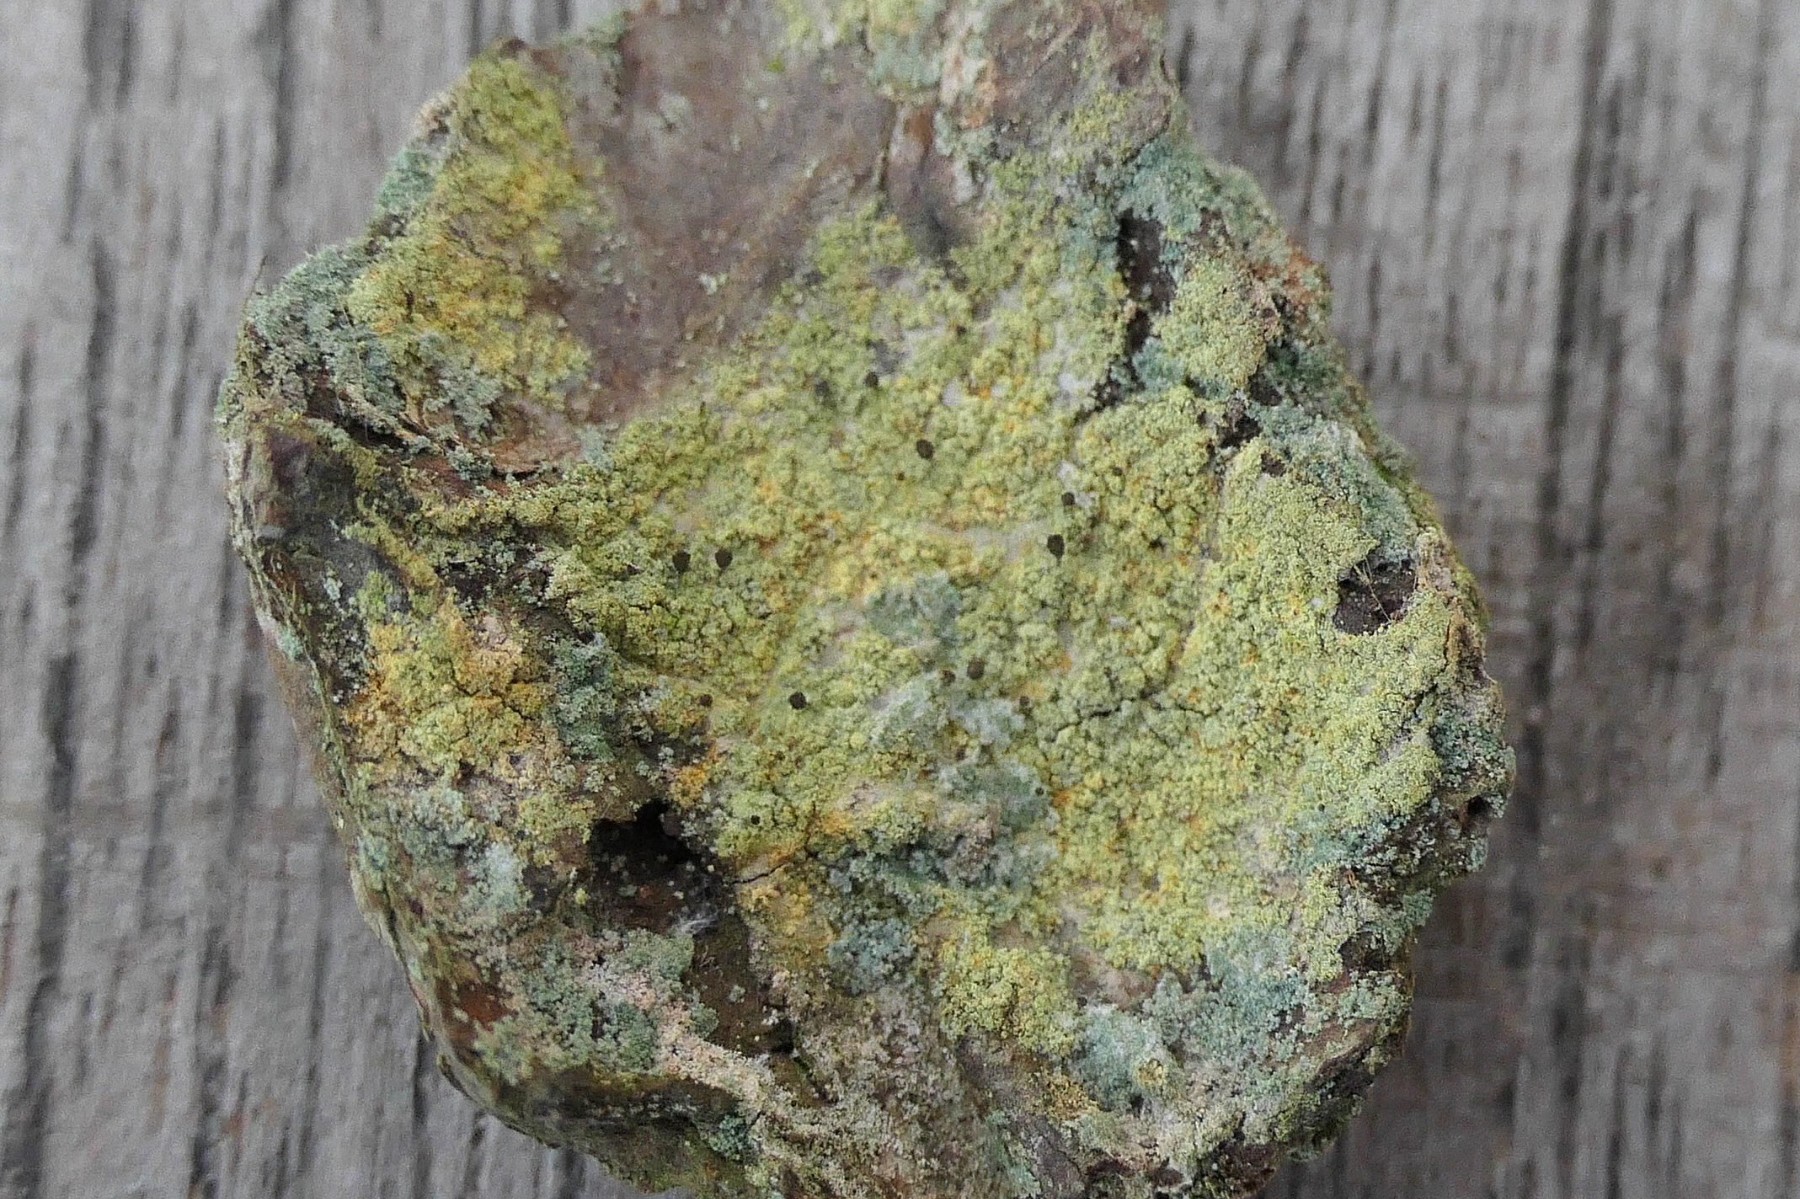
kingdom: Fungi
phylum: Ascomycota
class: Coniocybomycetes
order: Coniocybales
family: Coniocybaceae
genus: Chaenotheca
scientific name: Chaenotheca ferruginea
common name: rustbrun knappenålslav
